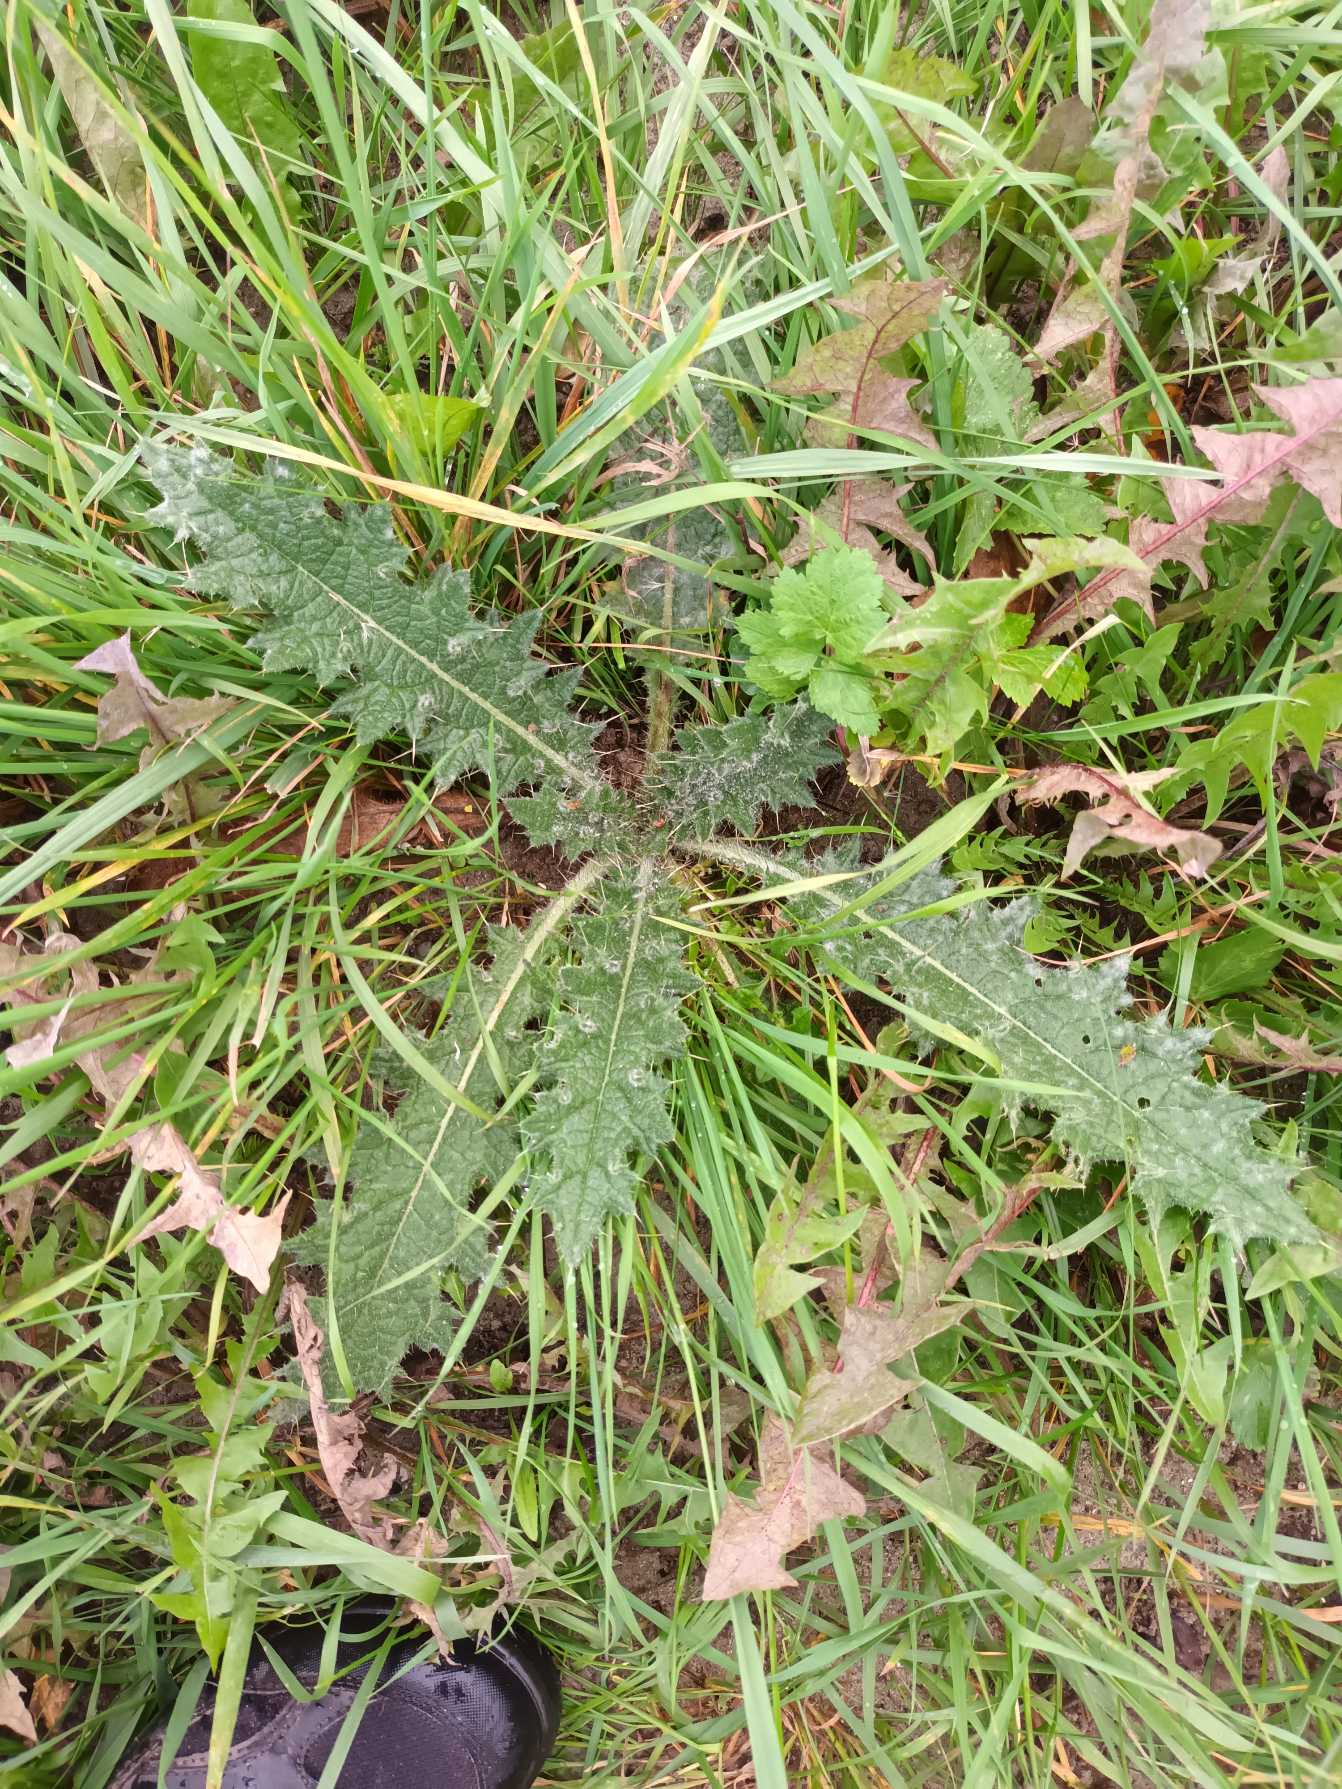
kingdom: Plantae
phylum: Tracheophyta
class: Magnoliopsida
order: Asterales
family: Asteraceae
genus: Cirsium
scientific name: Cirsium vulgare
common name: Horse-tidsel
